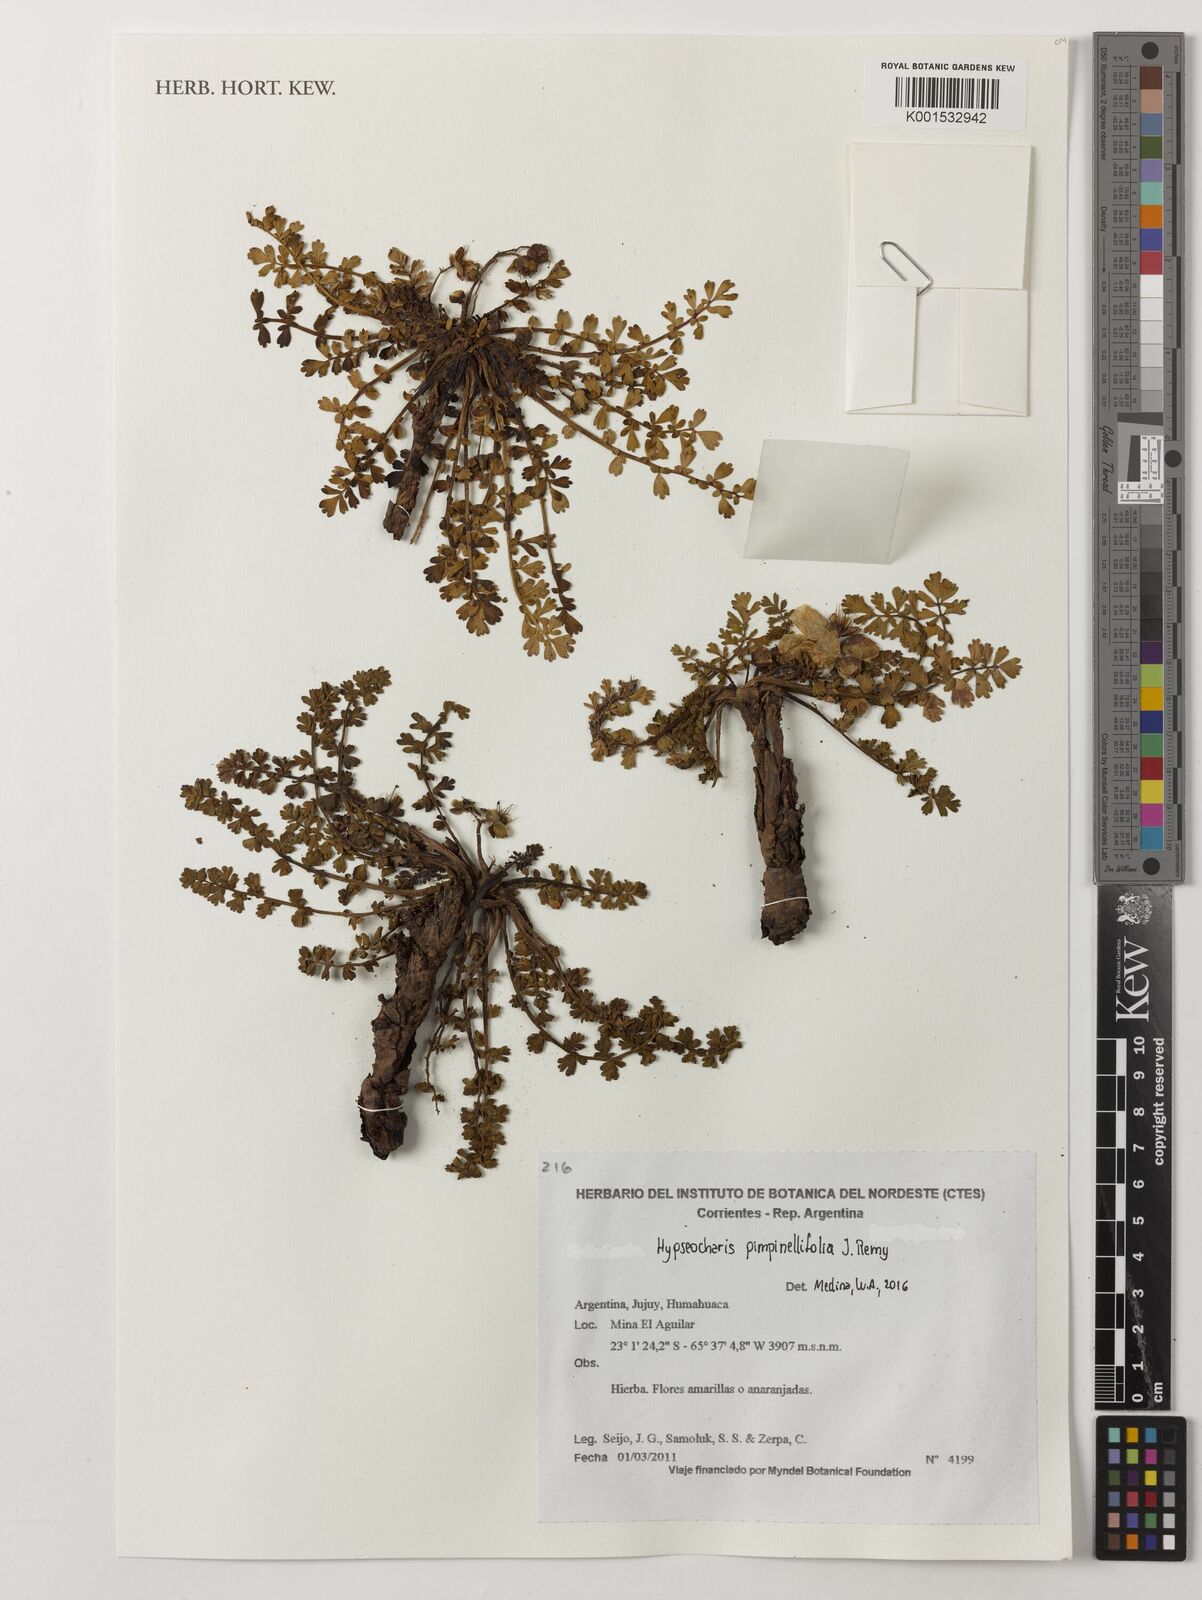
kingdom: Plantae
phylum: Tracheophyta
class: Magnoliopsida
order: Geraniales
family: Hypseocharitaceae
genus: Hypseocharis
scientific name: Hypseocharis pimpinellifolia
